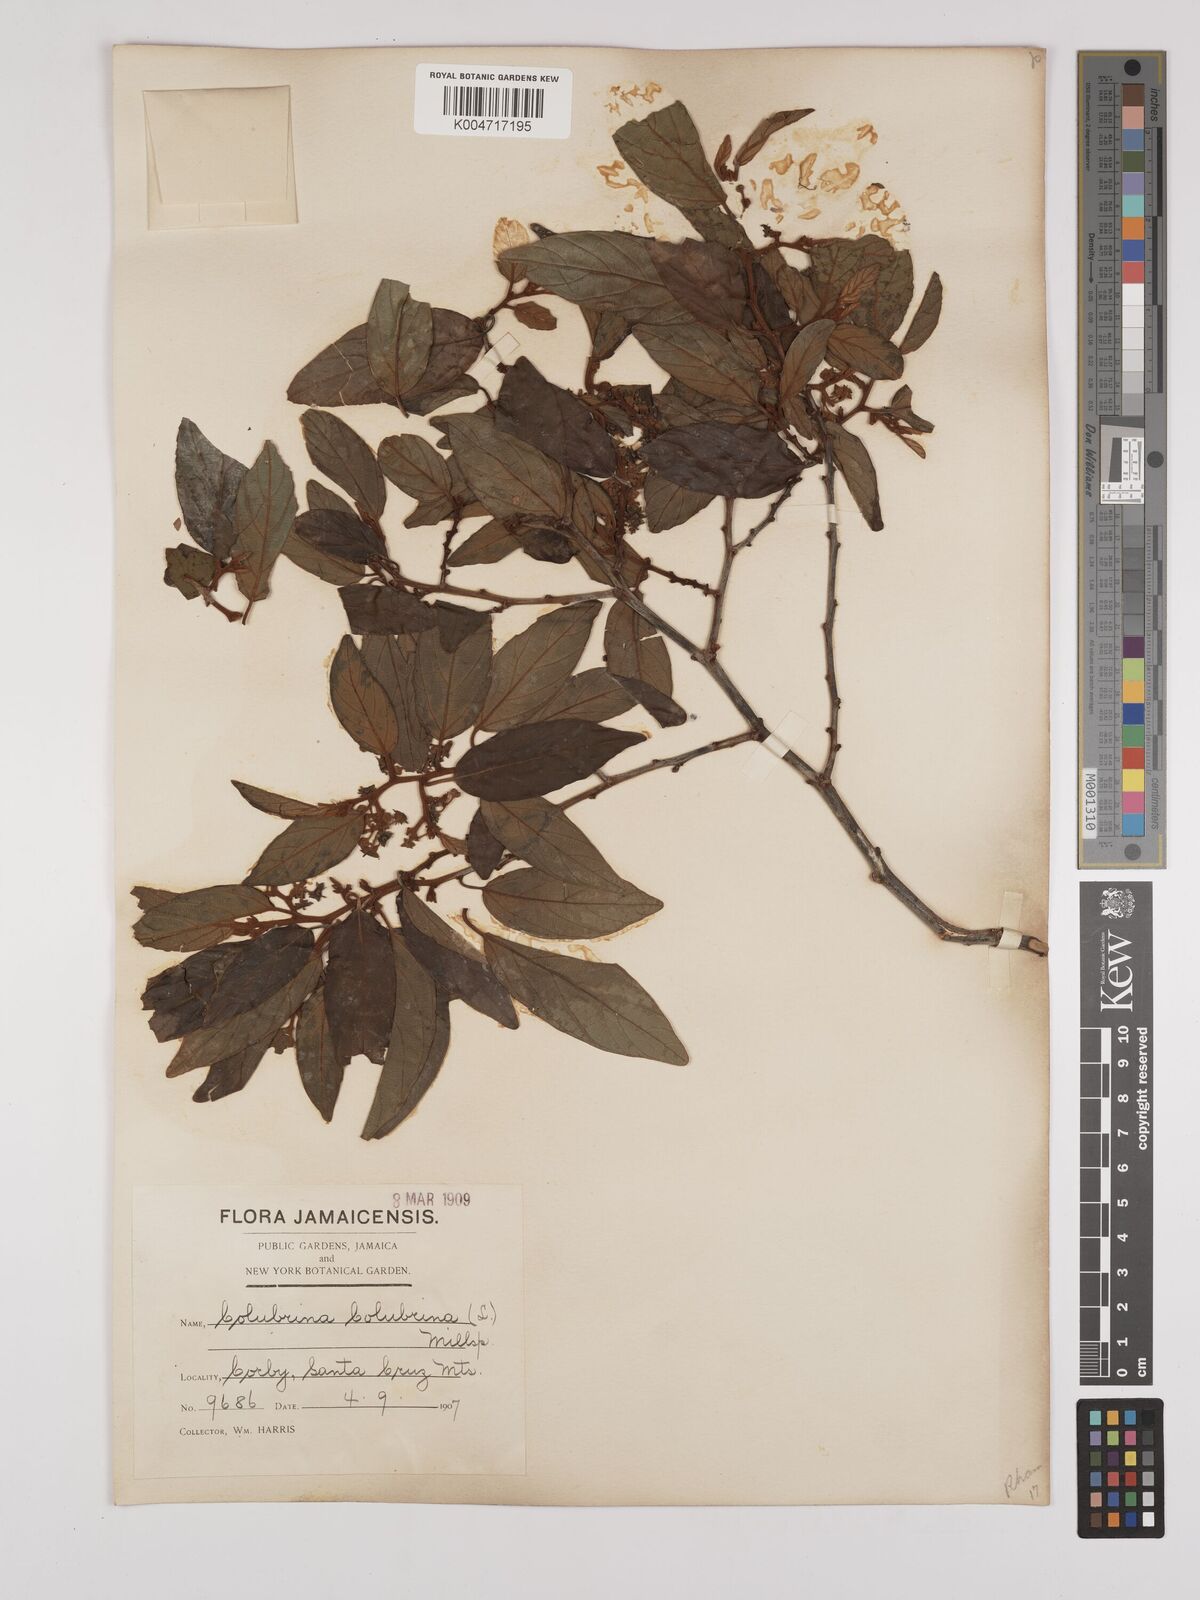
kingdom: Plantae
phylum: Tracheophyta
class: Magnoliopsida
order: Rosales
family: Rhamnaceae
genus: Colubrina
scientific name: Colubrina arborescens
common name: Wild coffee
